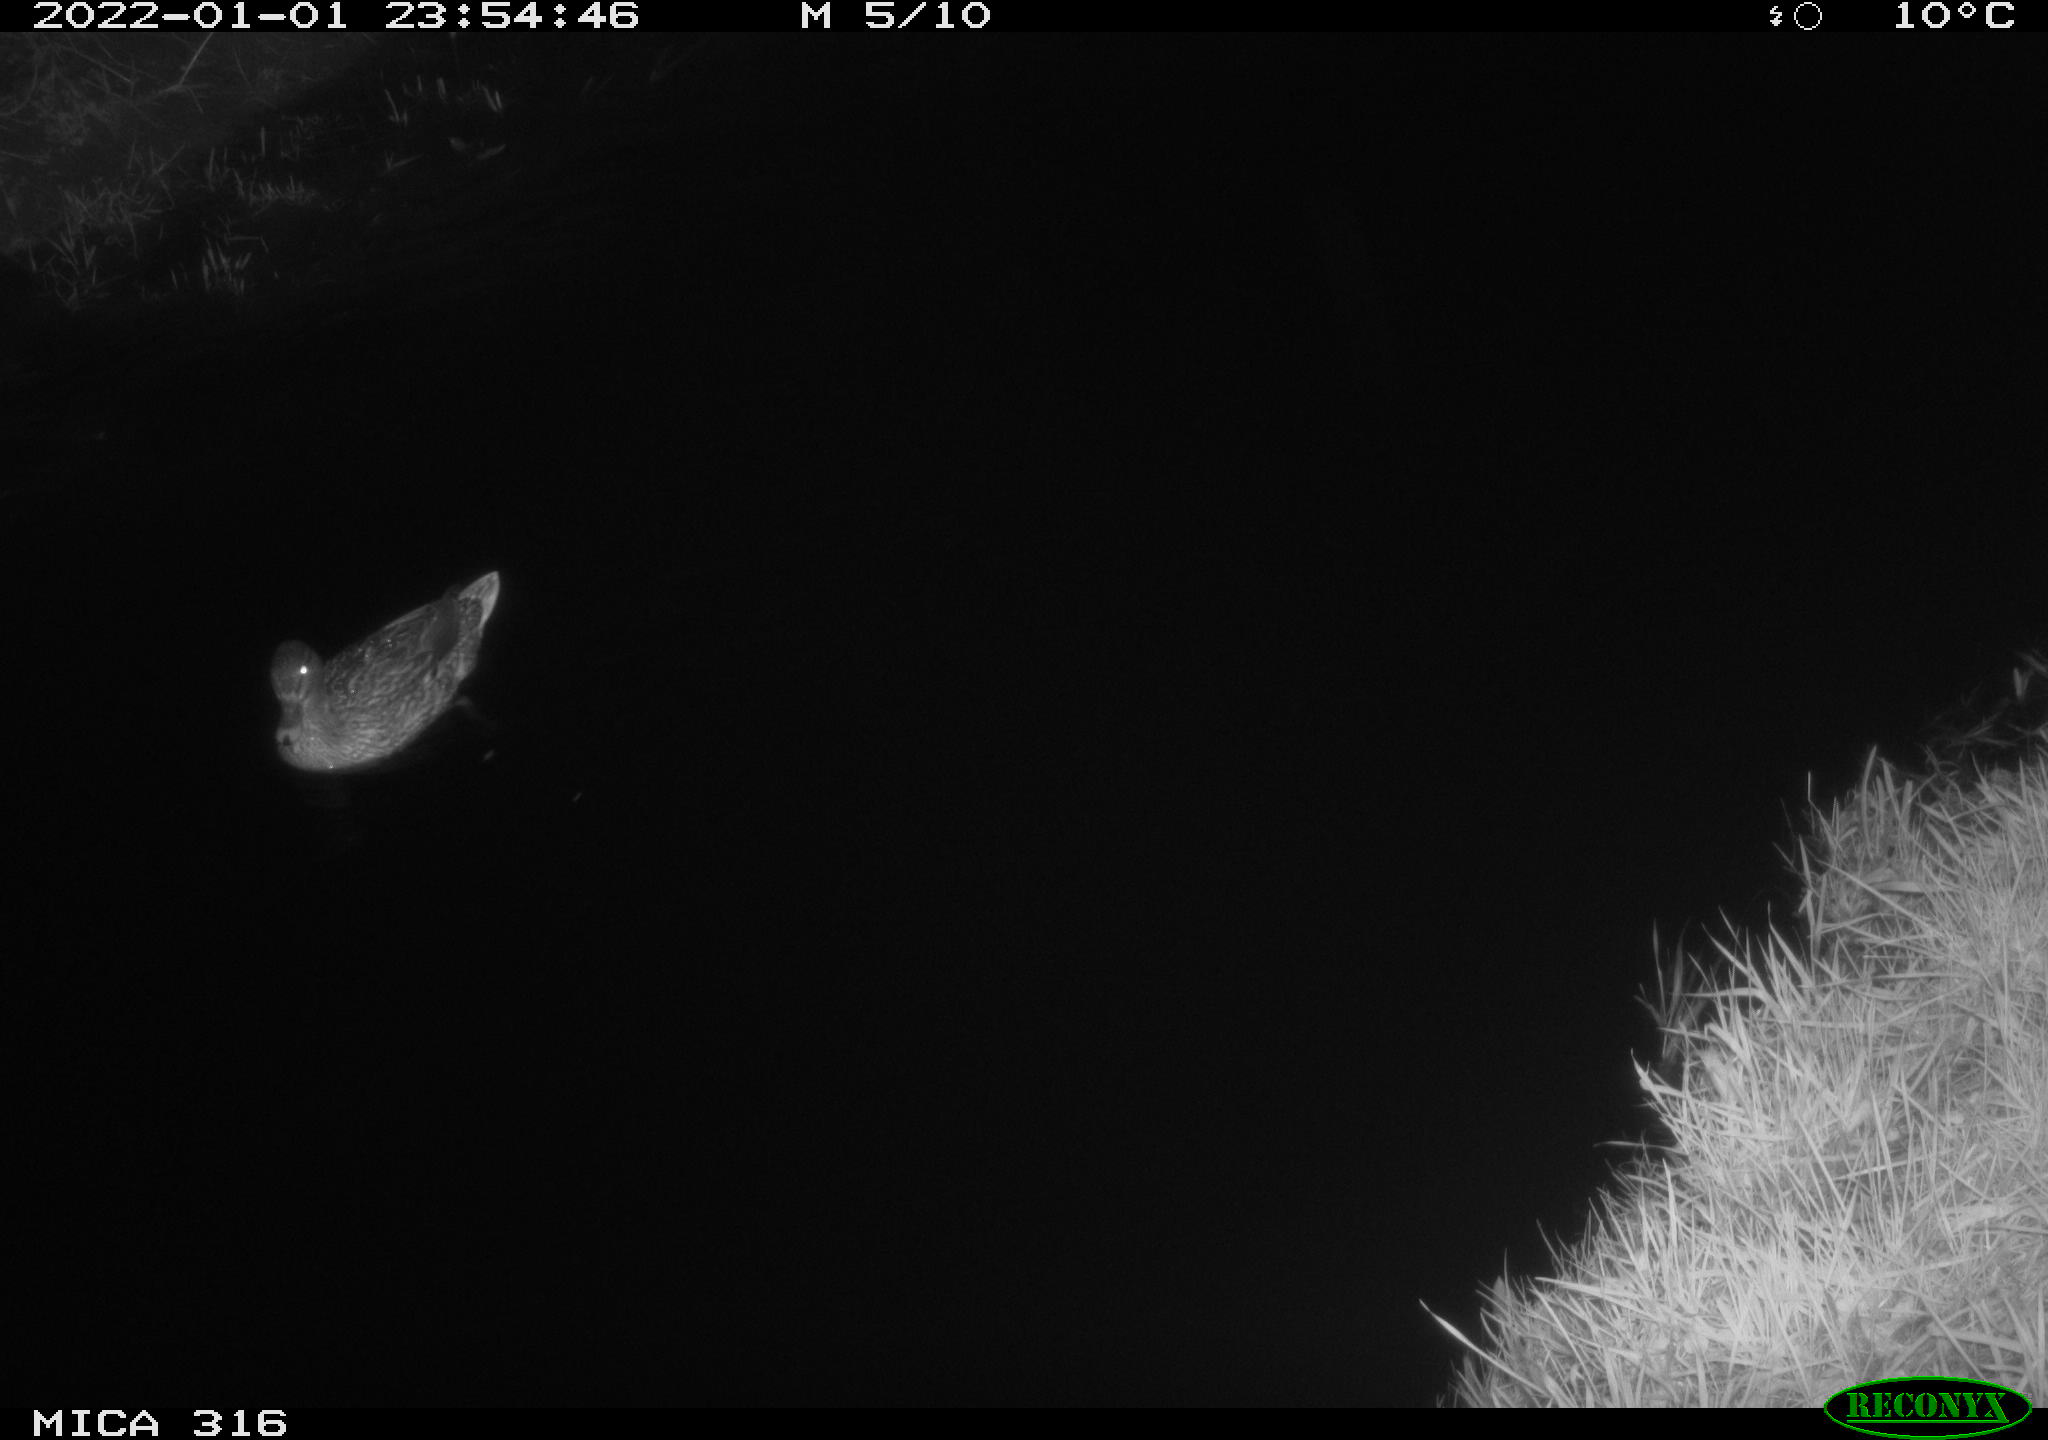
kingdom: Animalia
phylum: Chordata
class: Aves
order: Anseriformes
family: Anatidae
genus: Anas
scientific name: Anas
